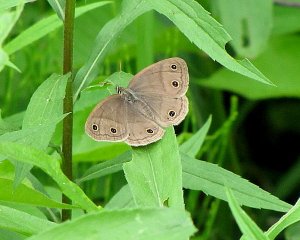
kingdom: Animalia
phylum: Arthropoda
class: Insecta
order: Lepidoptera
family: Nymphalidae
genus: Euptychia
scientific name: Euptychia cymela
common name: Little Wood Satyr
